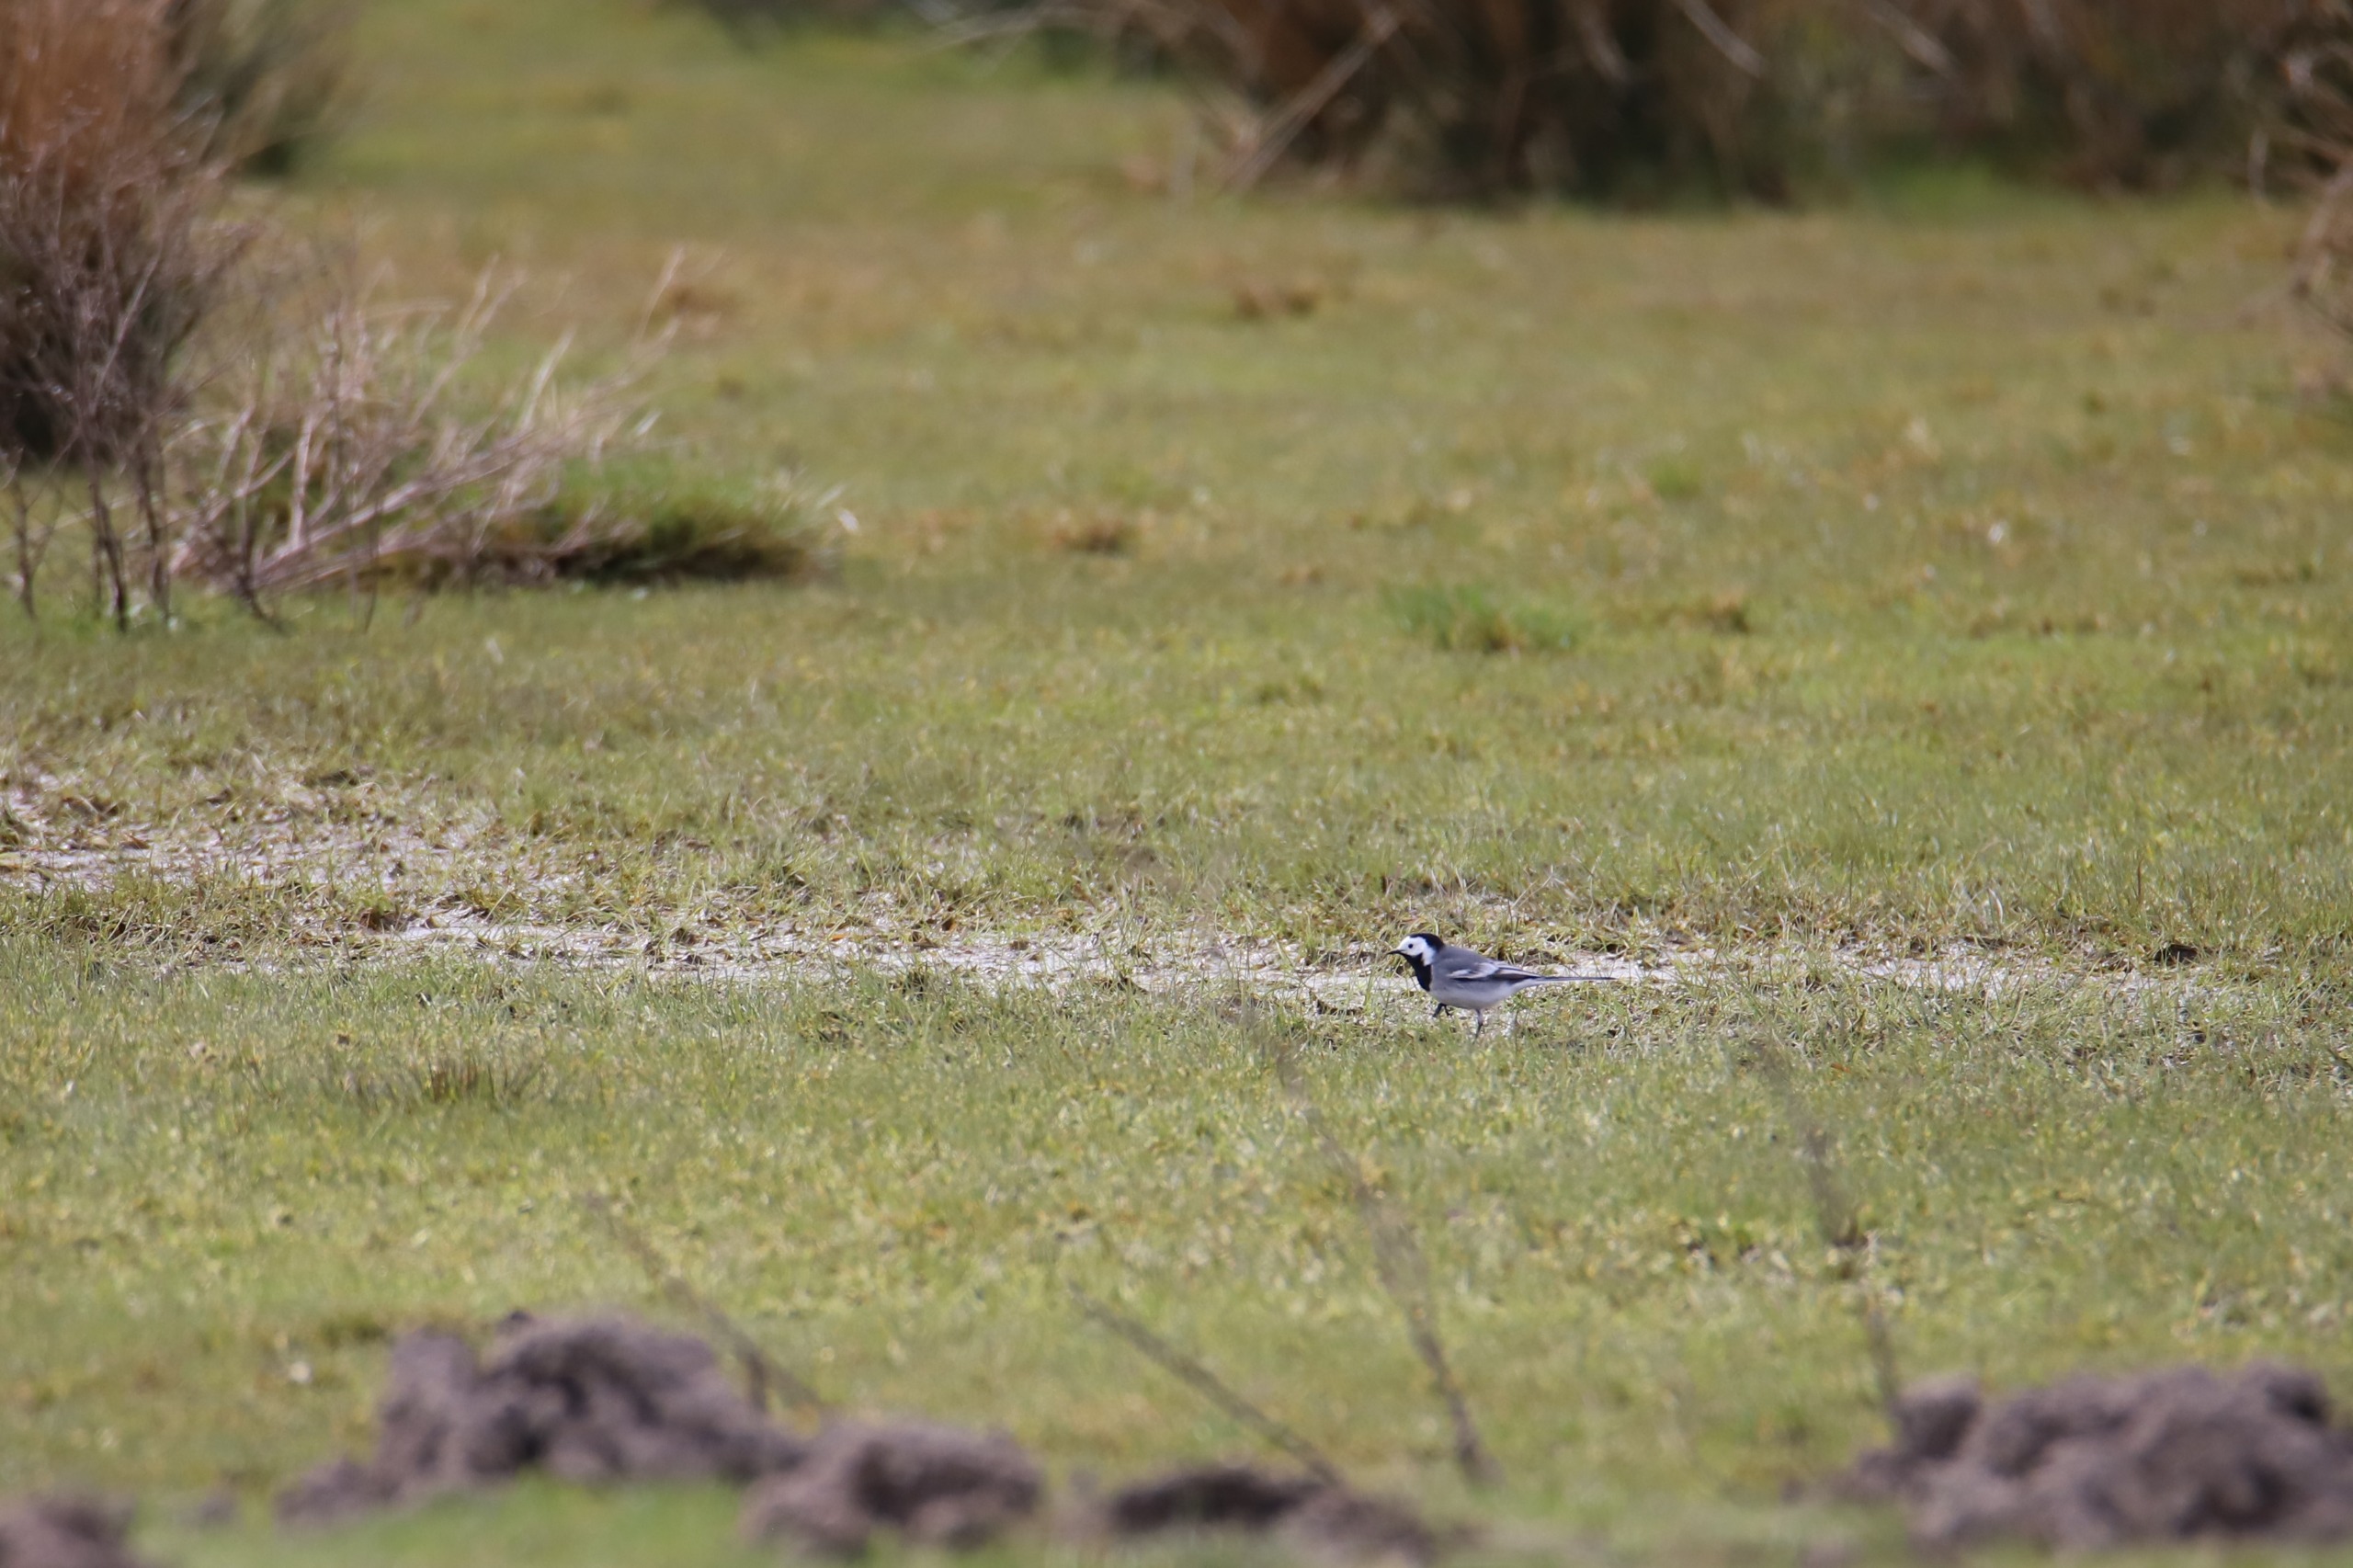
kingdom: Animalia
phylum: Chordata
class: Aves
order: Passeriformes
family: Motacillidae
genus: Motacilla
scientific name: Motacilla alba
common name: Hvid vipstjert
